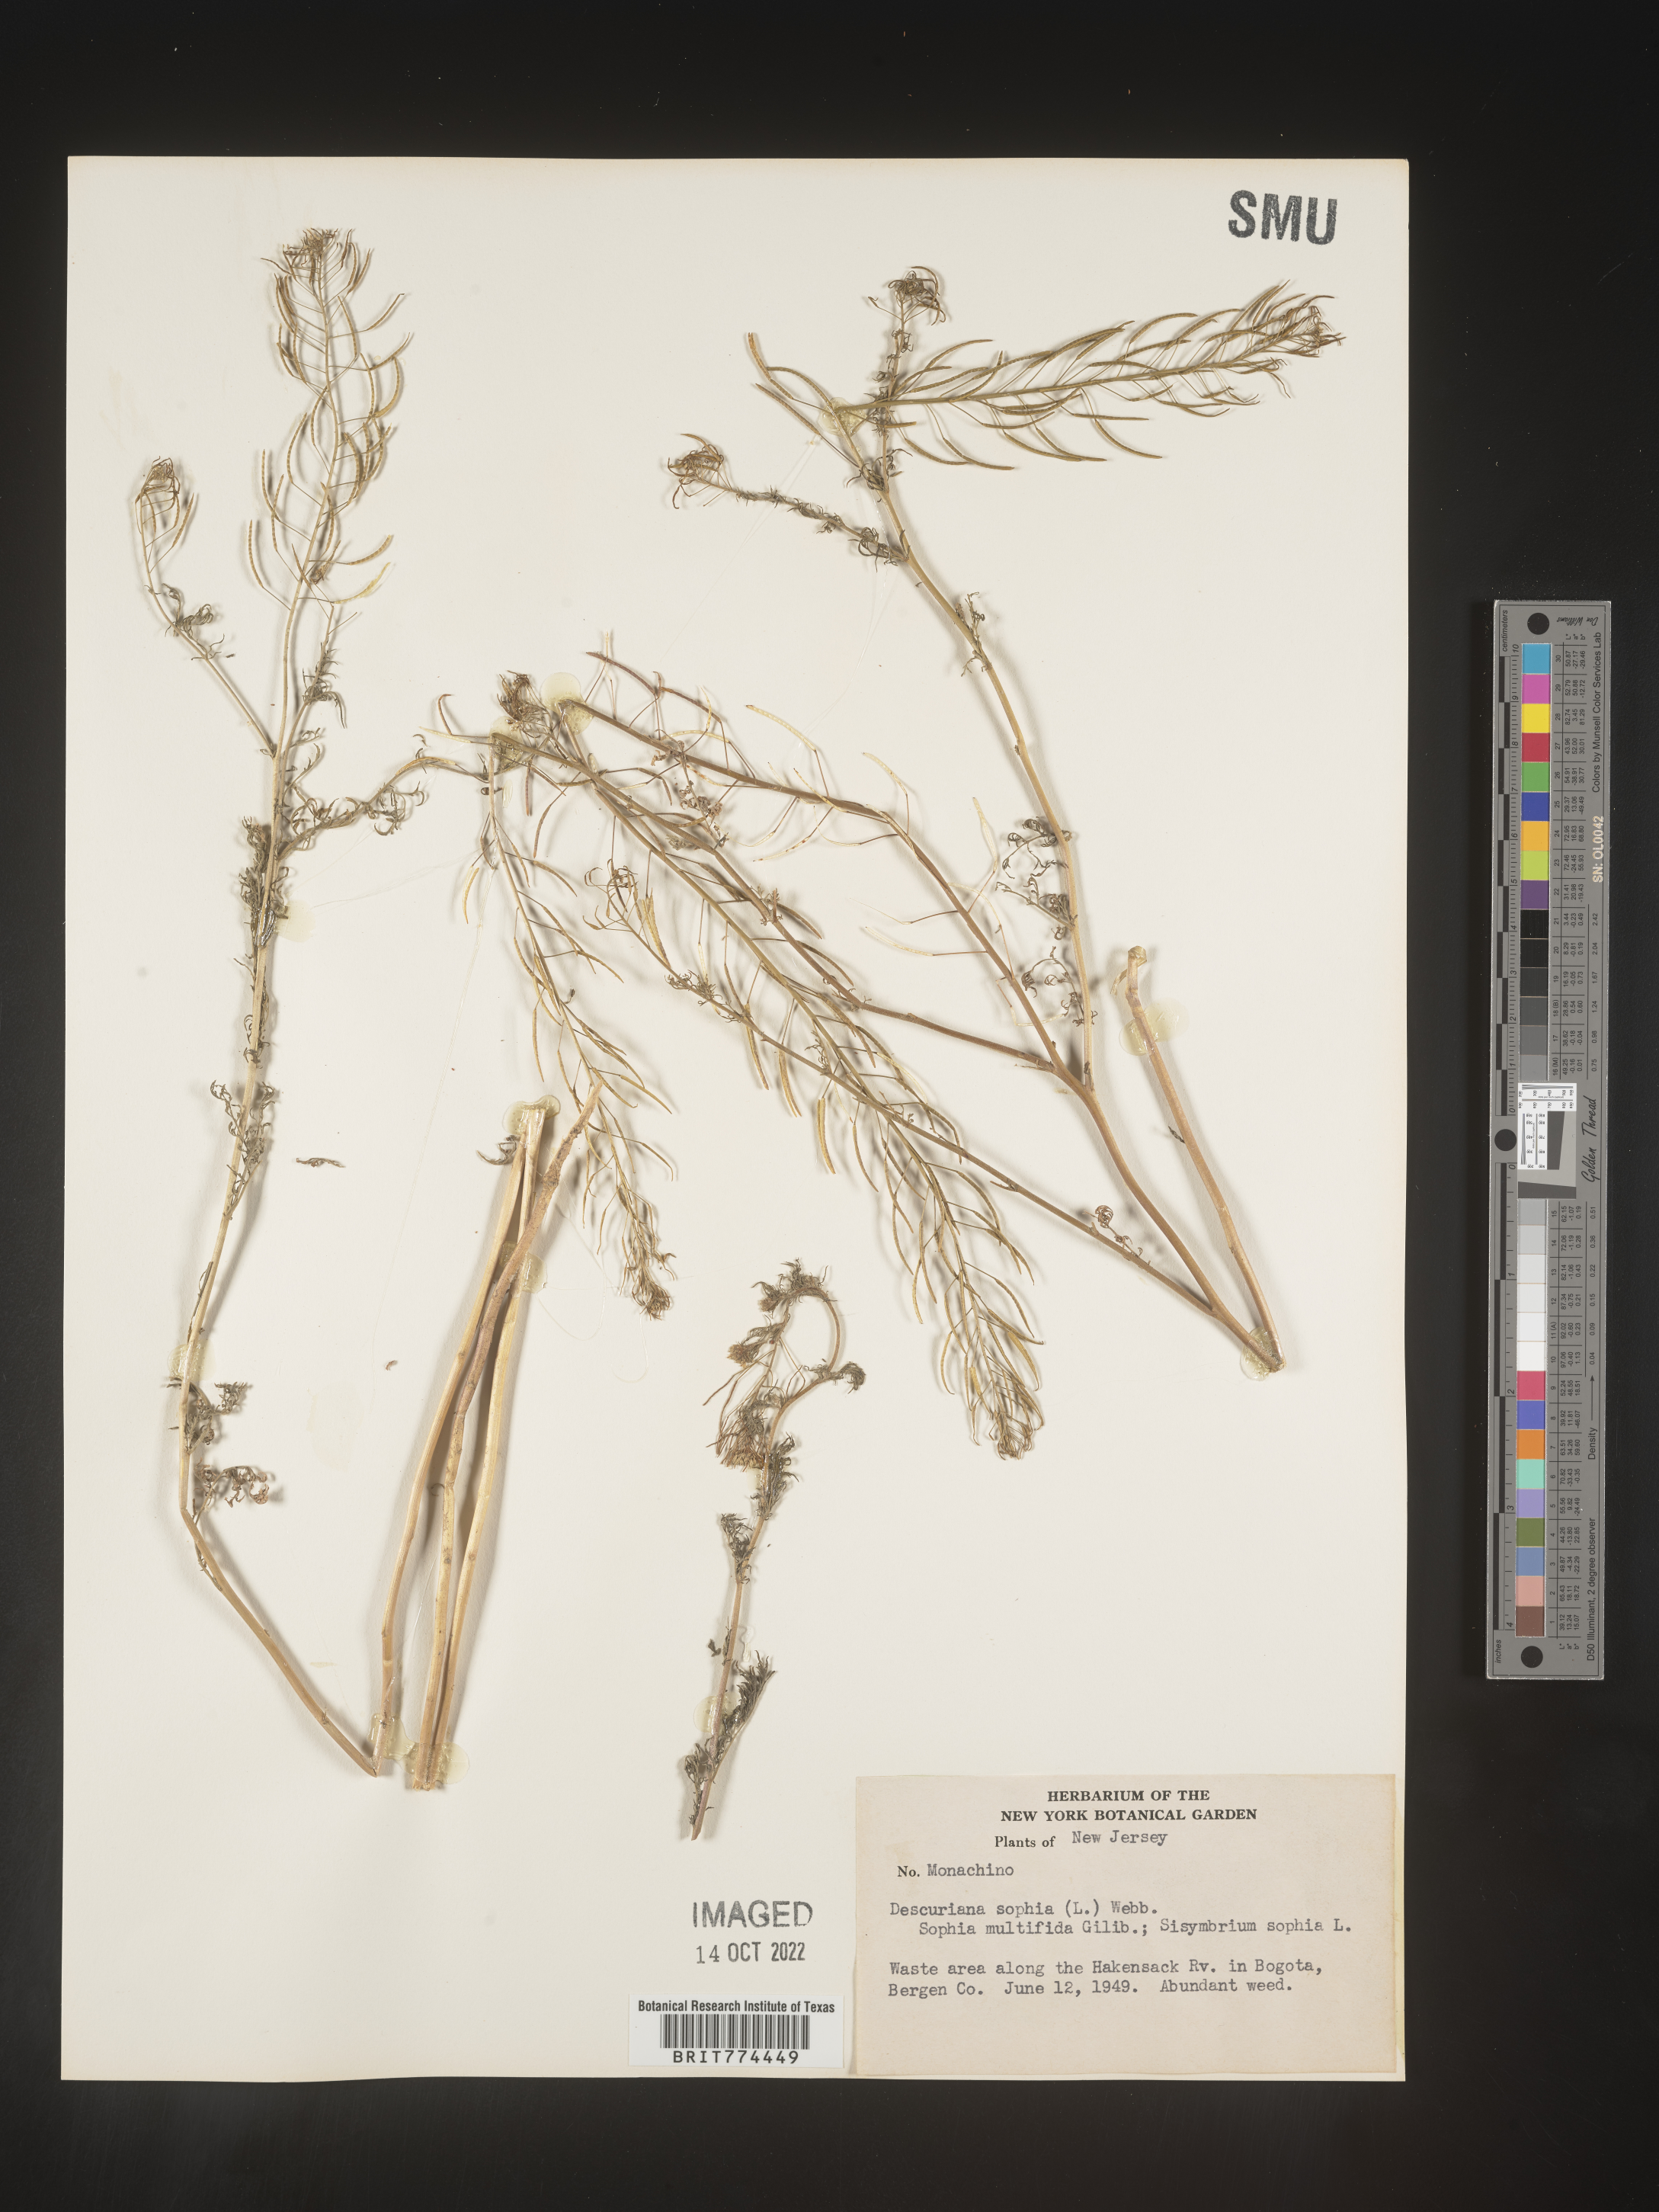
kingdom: Plantae
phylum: Tracheophyta
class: Magnoliopsida
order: Brassicales
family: Brassicaceae
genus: Descurainia
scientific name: Descurainia sophia
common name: Flixweed
